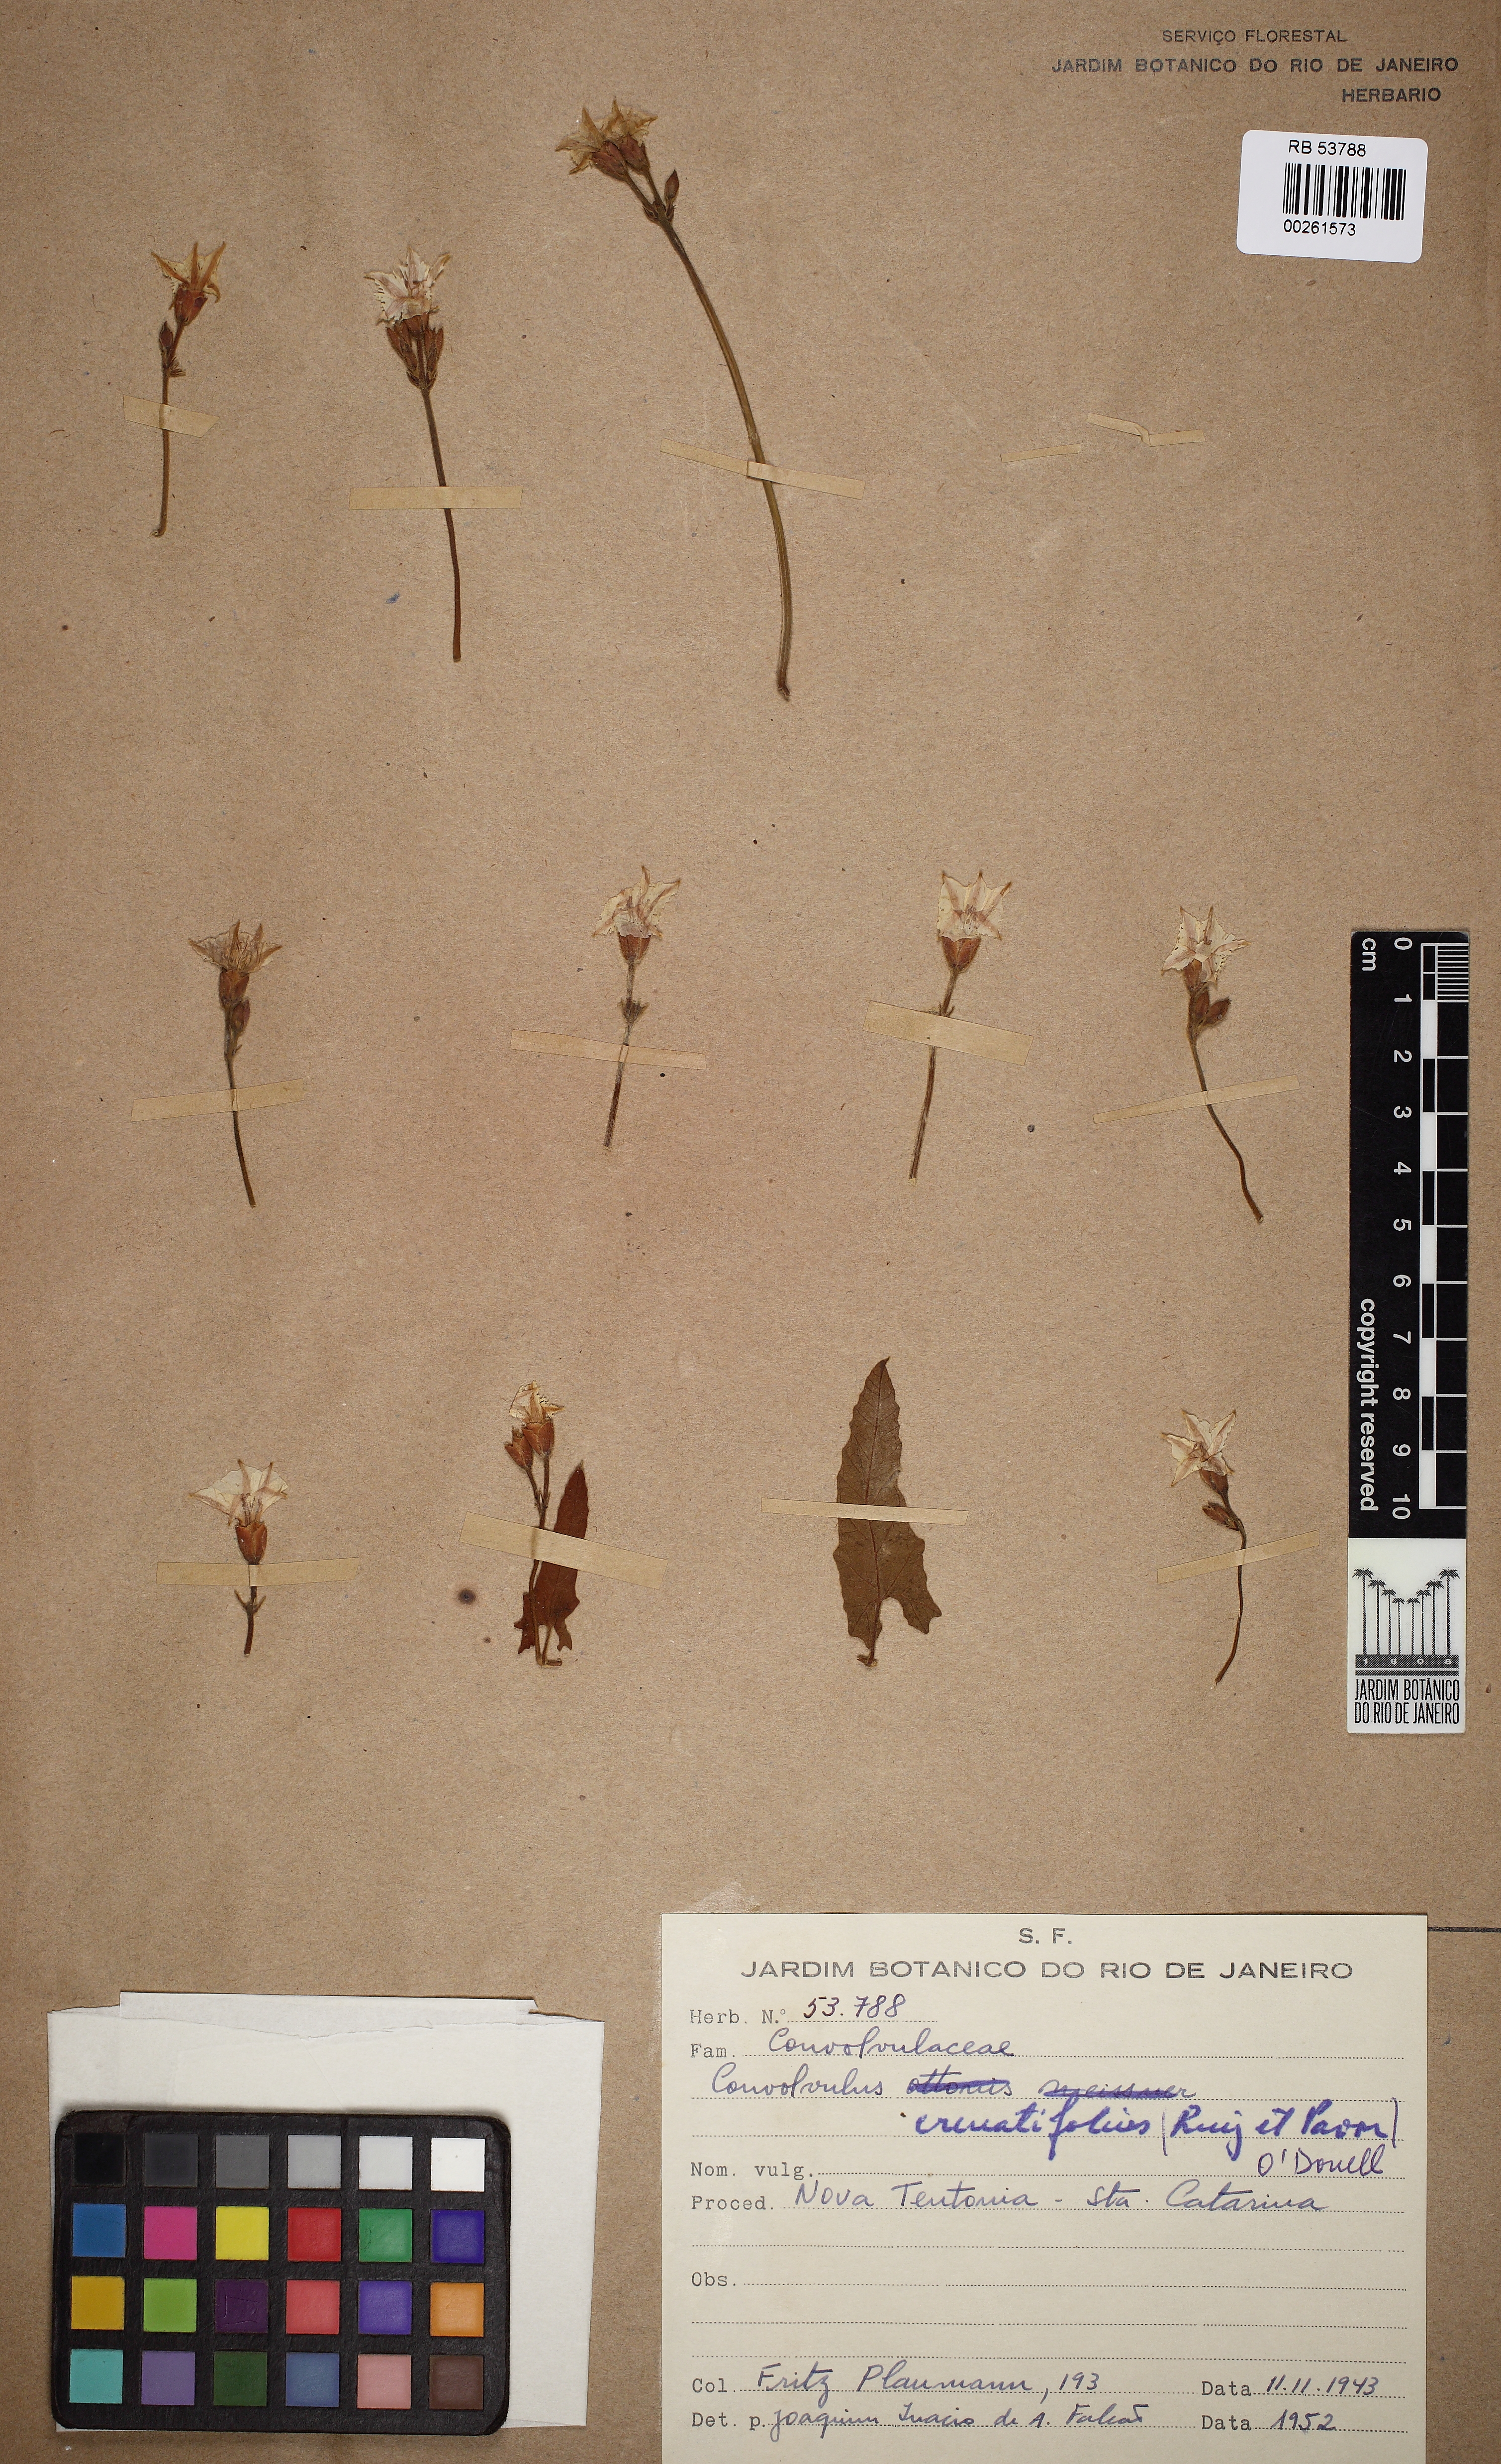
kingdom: Plantae
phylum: Tracheophyta
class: Magnoliopsida
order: Solanales
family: Convolvulaceae
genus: Convolvulus
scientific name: Convolvulus crenatifolius
